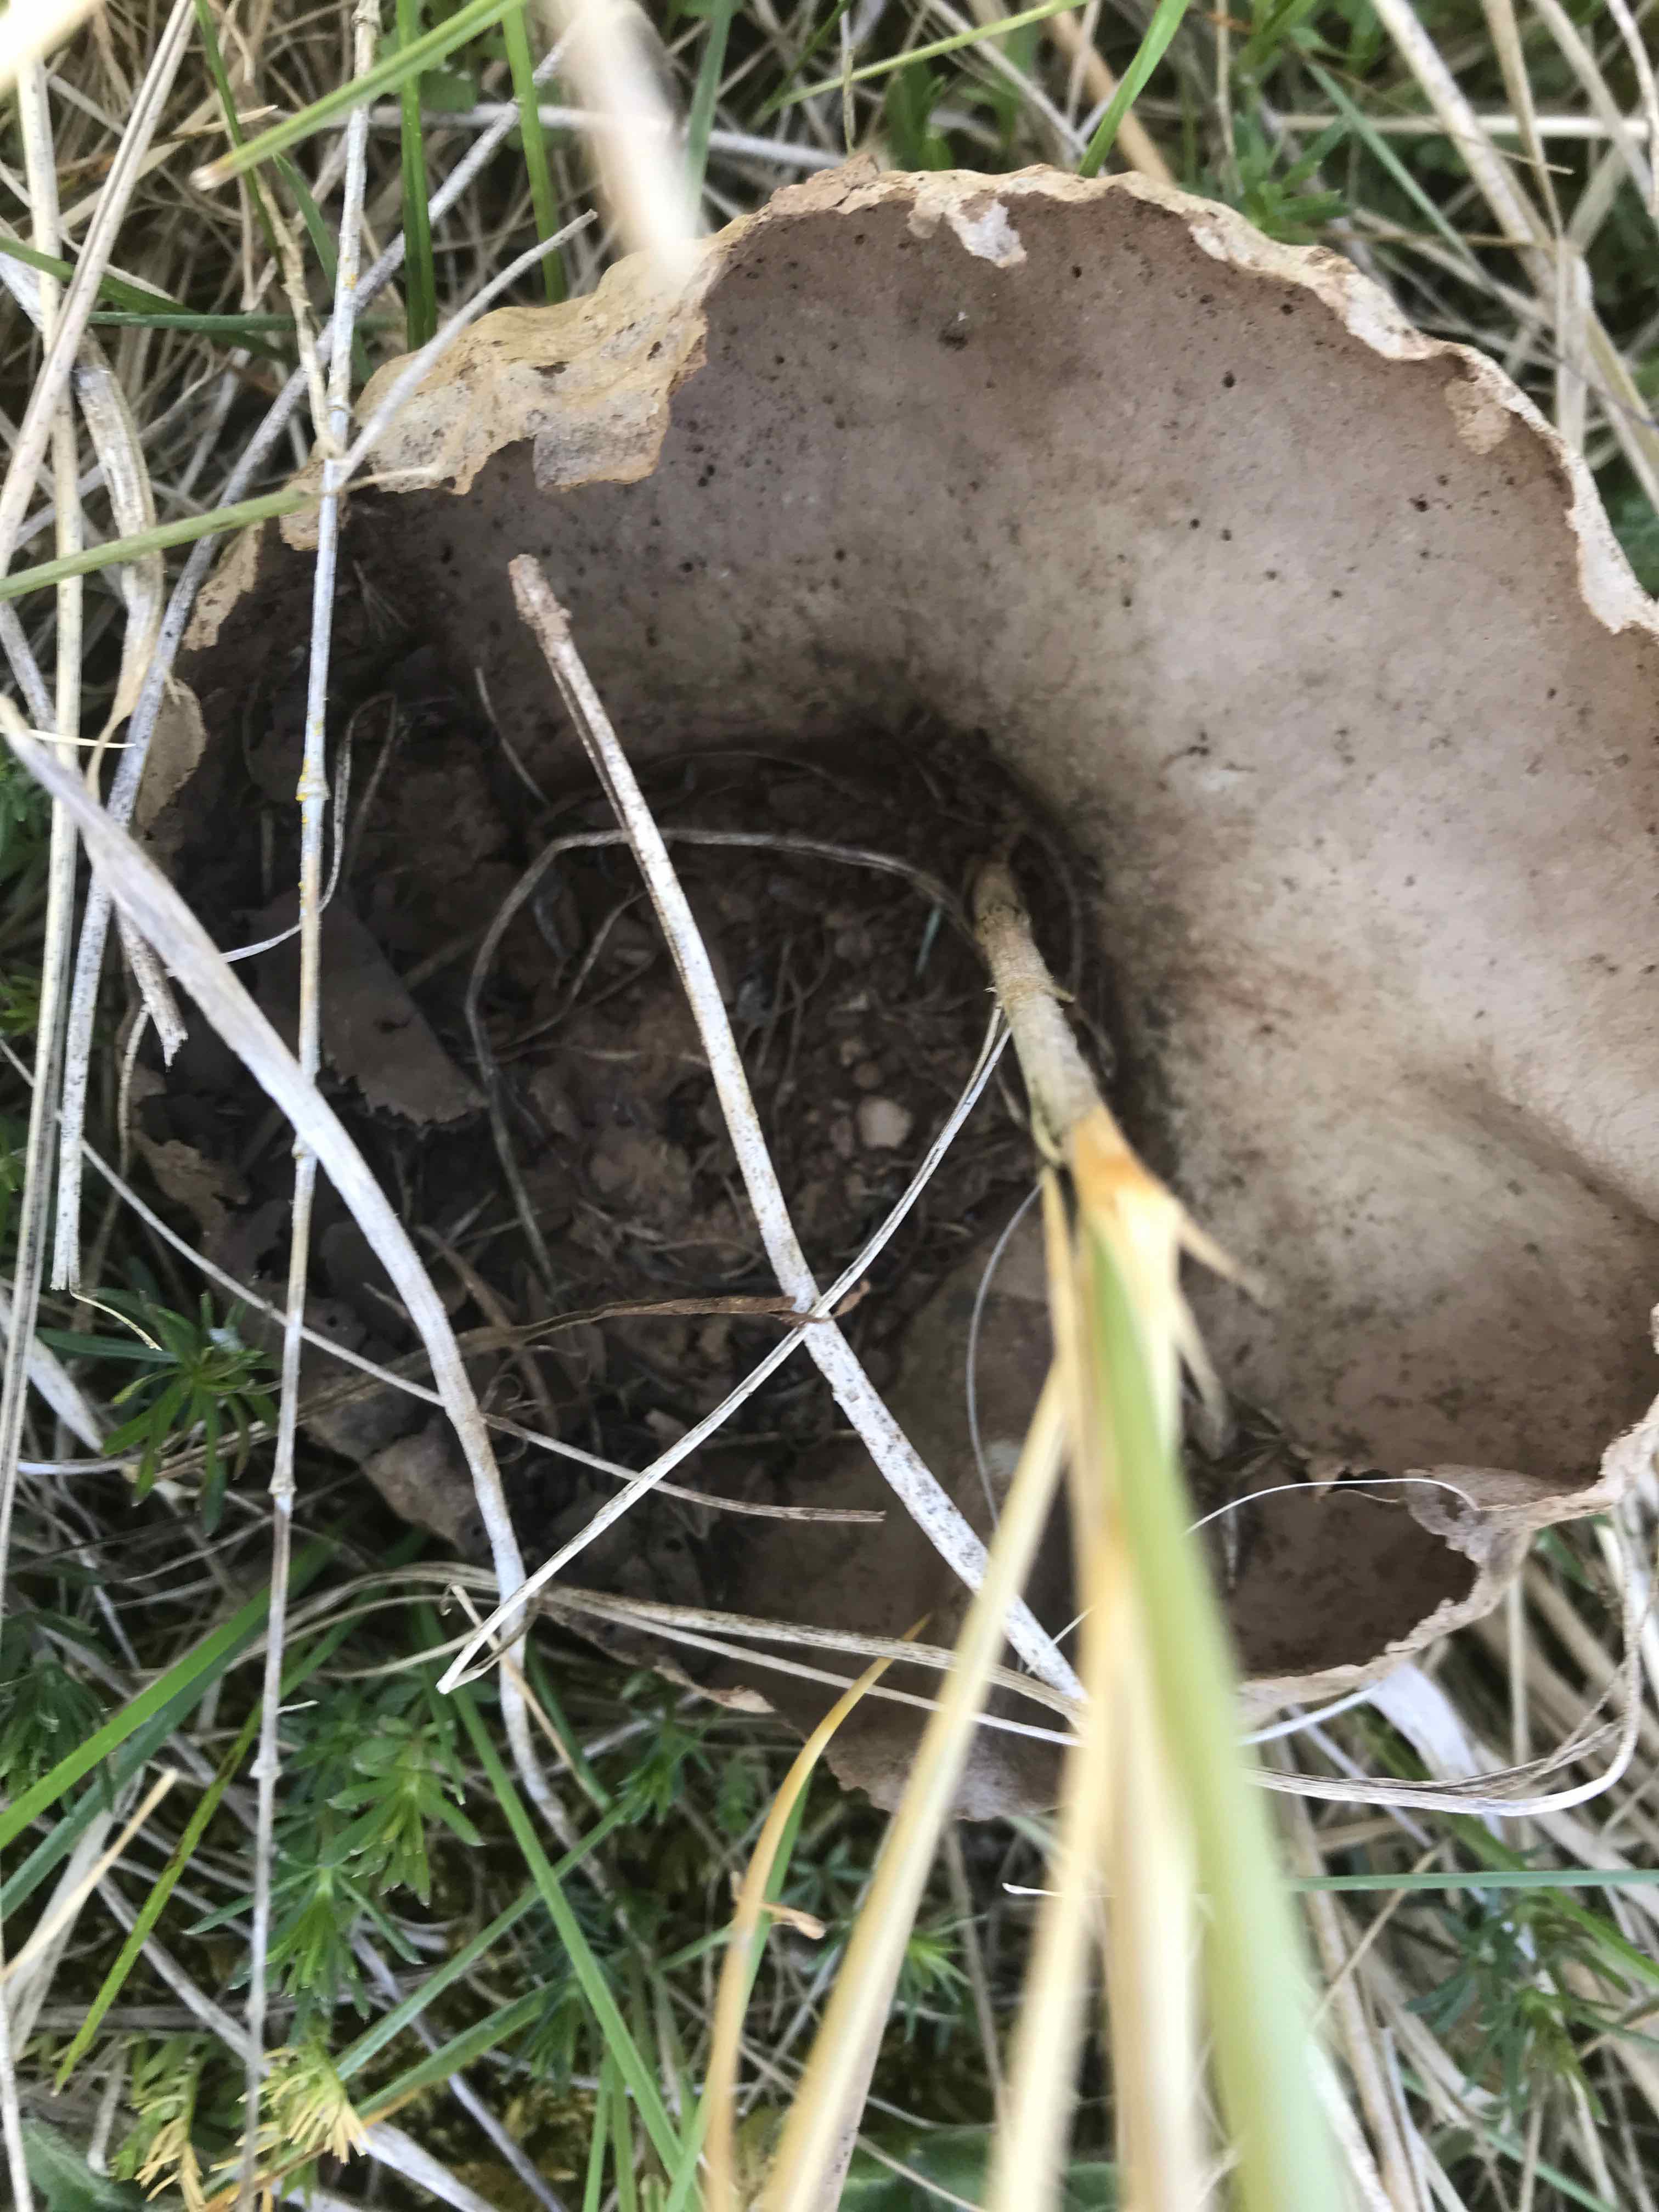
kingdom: Fungi
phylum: Basidiomycota
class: Agaricomycetes
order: Agaricales
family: Lycoperdaceae
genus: Bovistella
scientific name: Bovistella utriformis
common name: skællet støvbold
